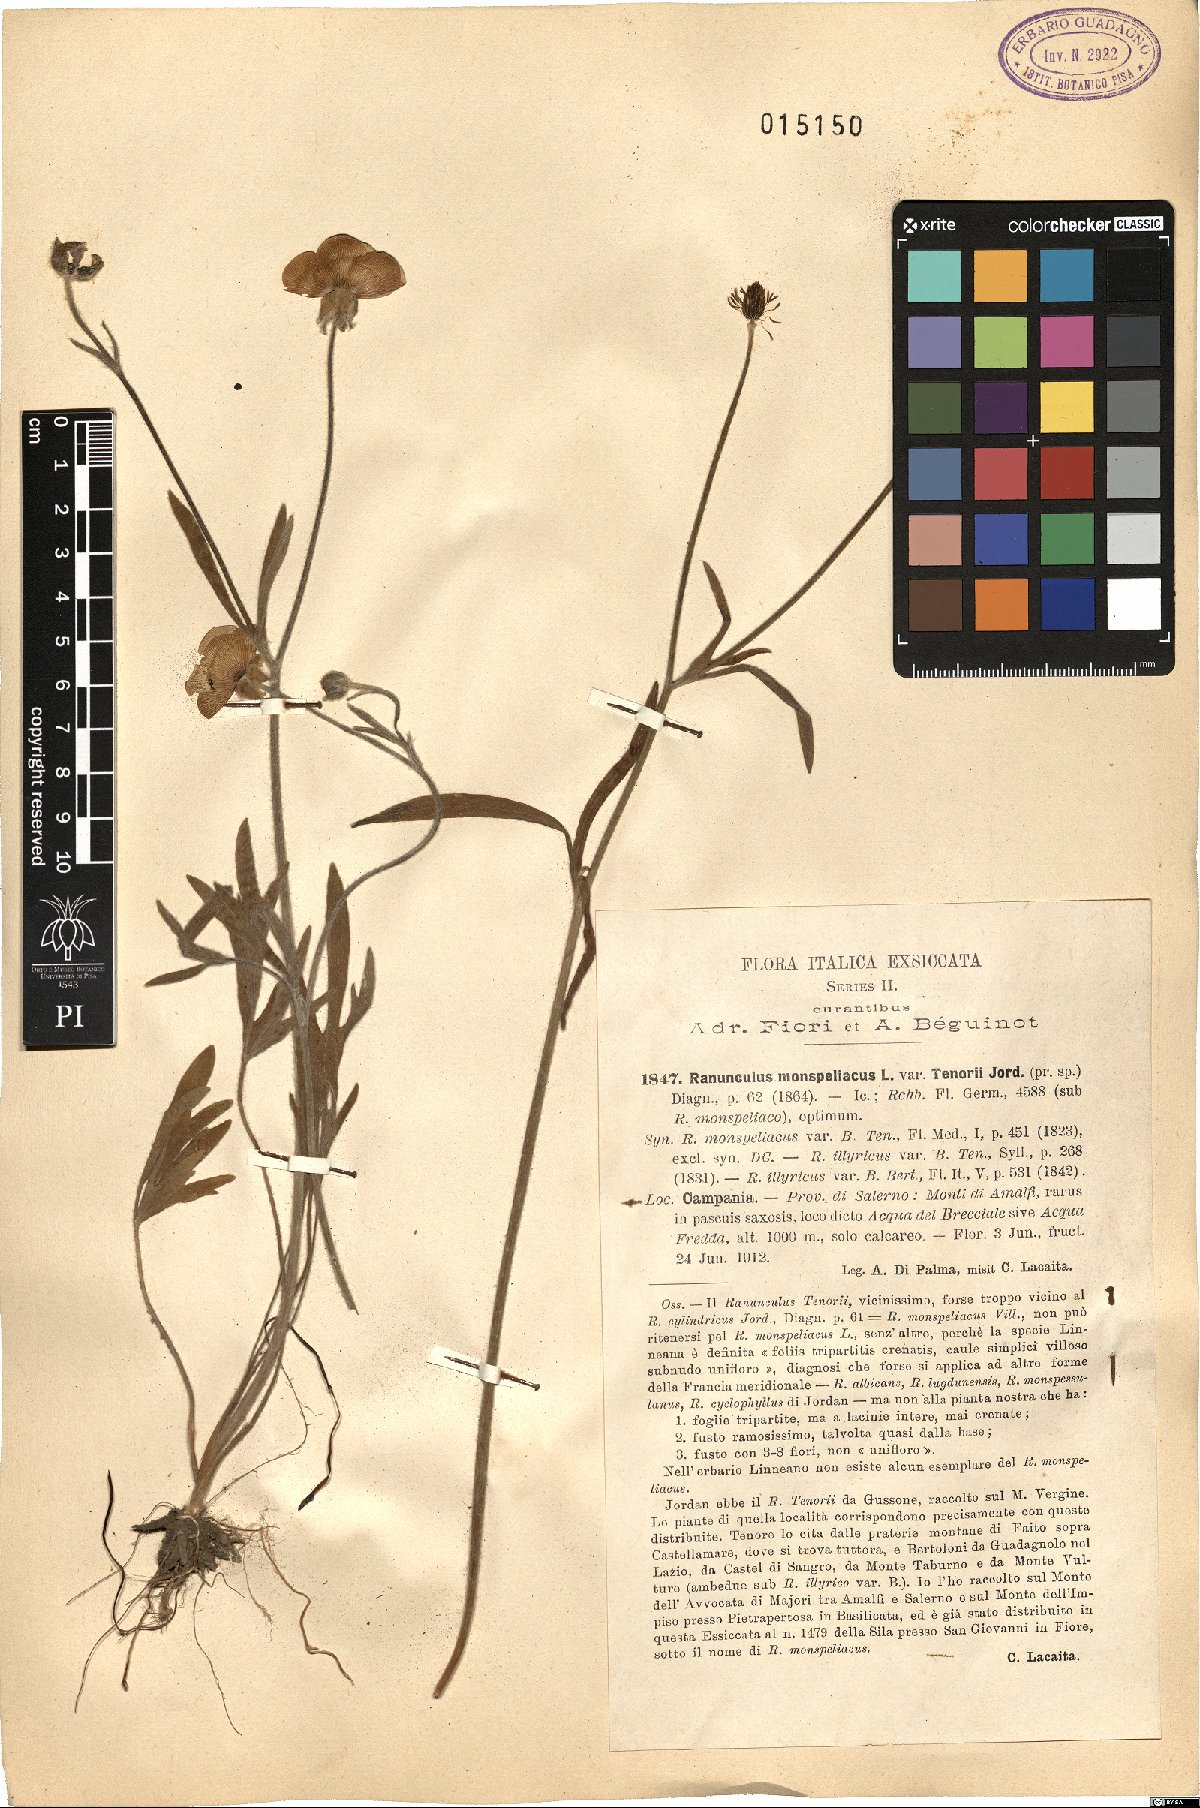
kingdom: Plantae
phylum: Tracheophyta
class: Magnoliopsida
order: Ranunculales
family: Ranunculaceae
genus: Ranunculus
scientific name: Ranunculus monspeliacus
